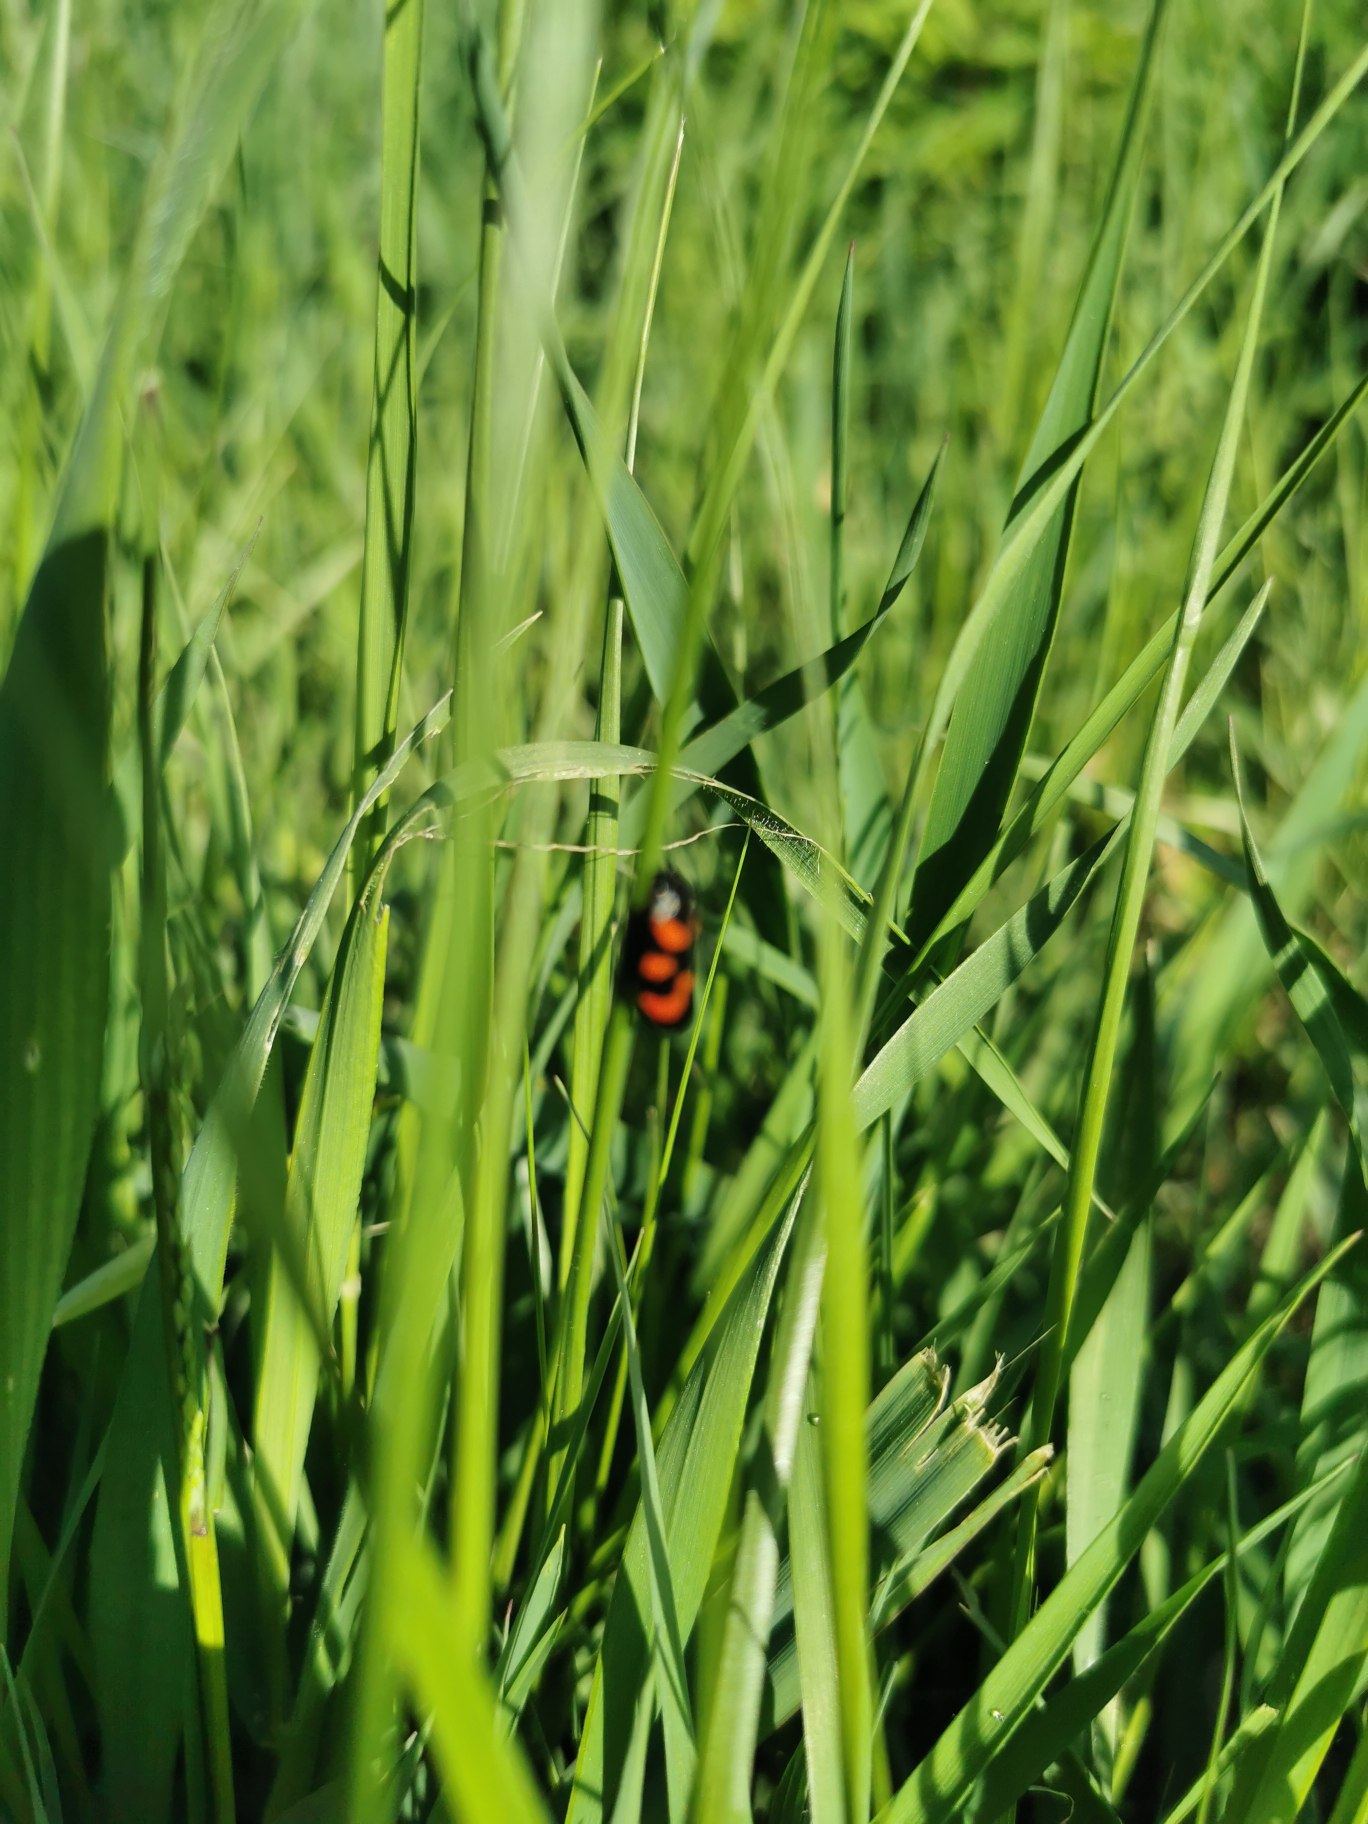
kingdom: Animalia
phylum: Arthropoda
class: Insecta
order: Hemiptera
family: Cercopidae
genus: Cercopis
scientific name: Cercopis vulnerata
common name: Blodcikade
